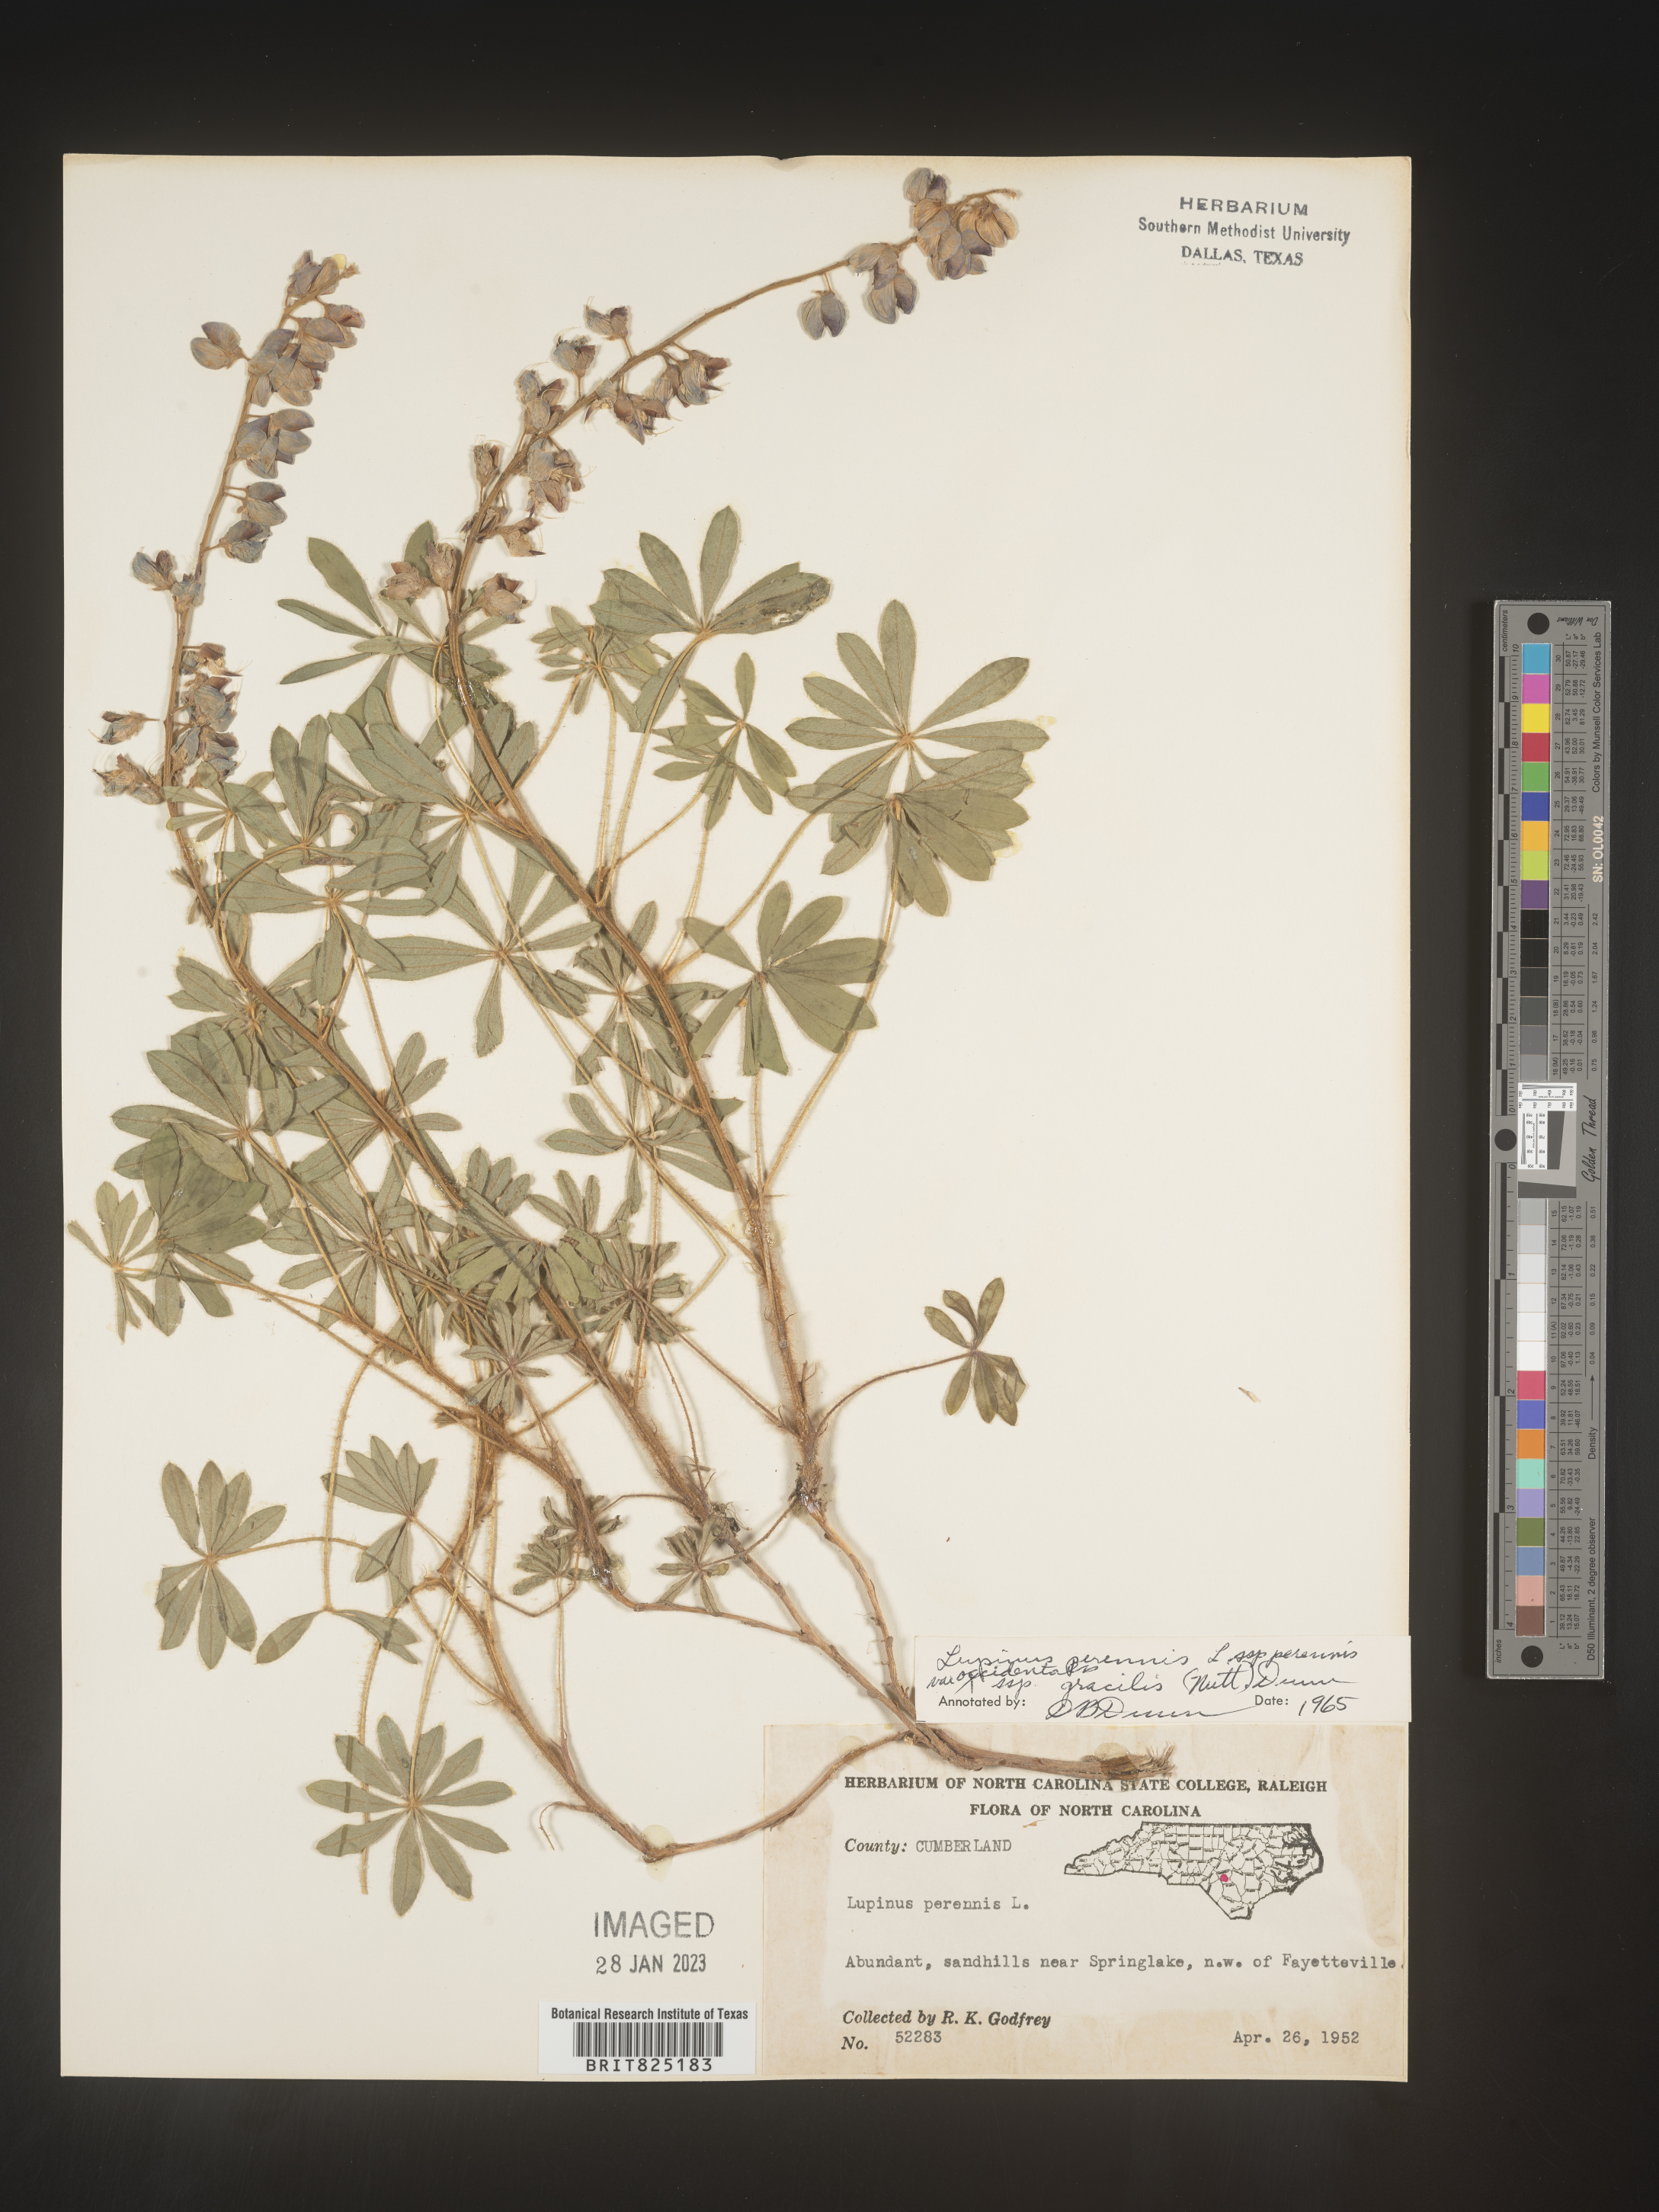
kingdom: Plantae
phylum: Tracheophyta
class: Magnoliopsida
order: Fabales
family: Fabaceae
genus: Lupinus
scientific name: Lupinus perennis
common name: Sundial lupine
